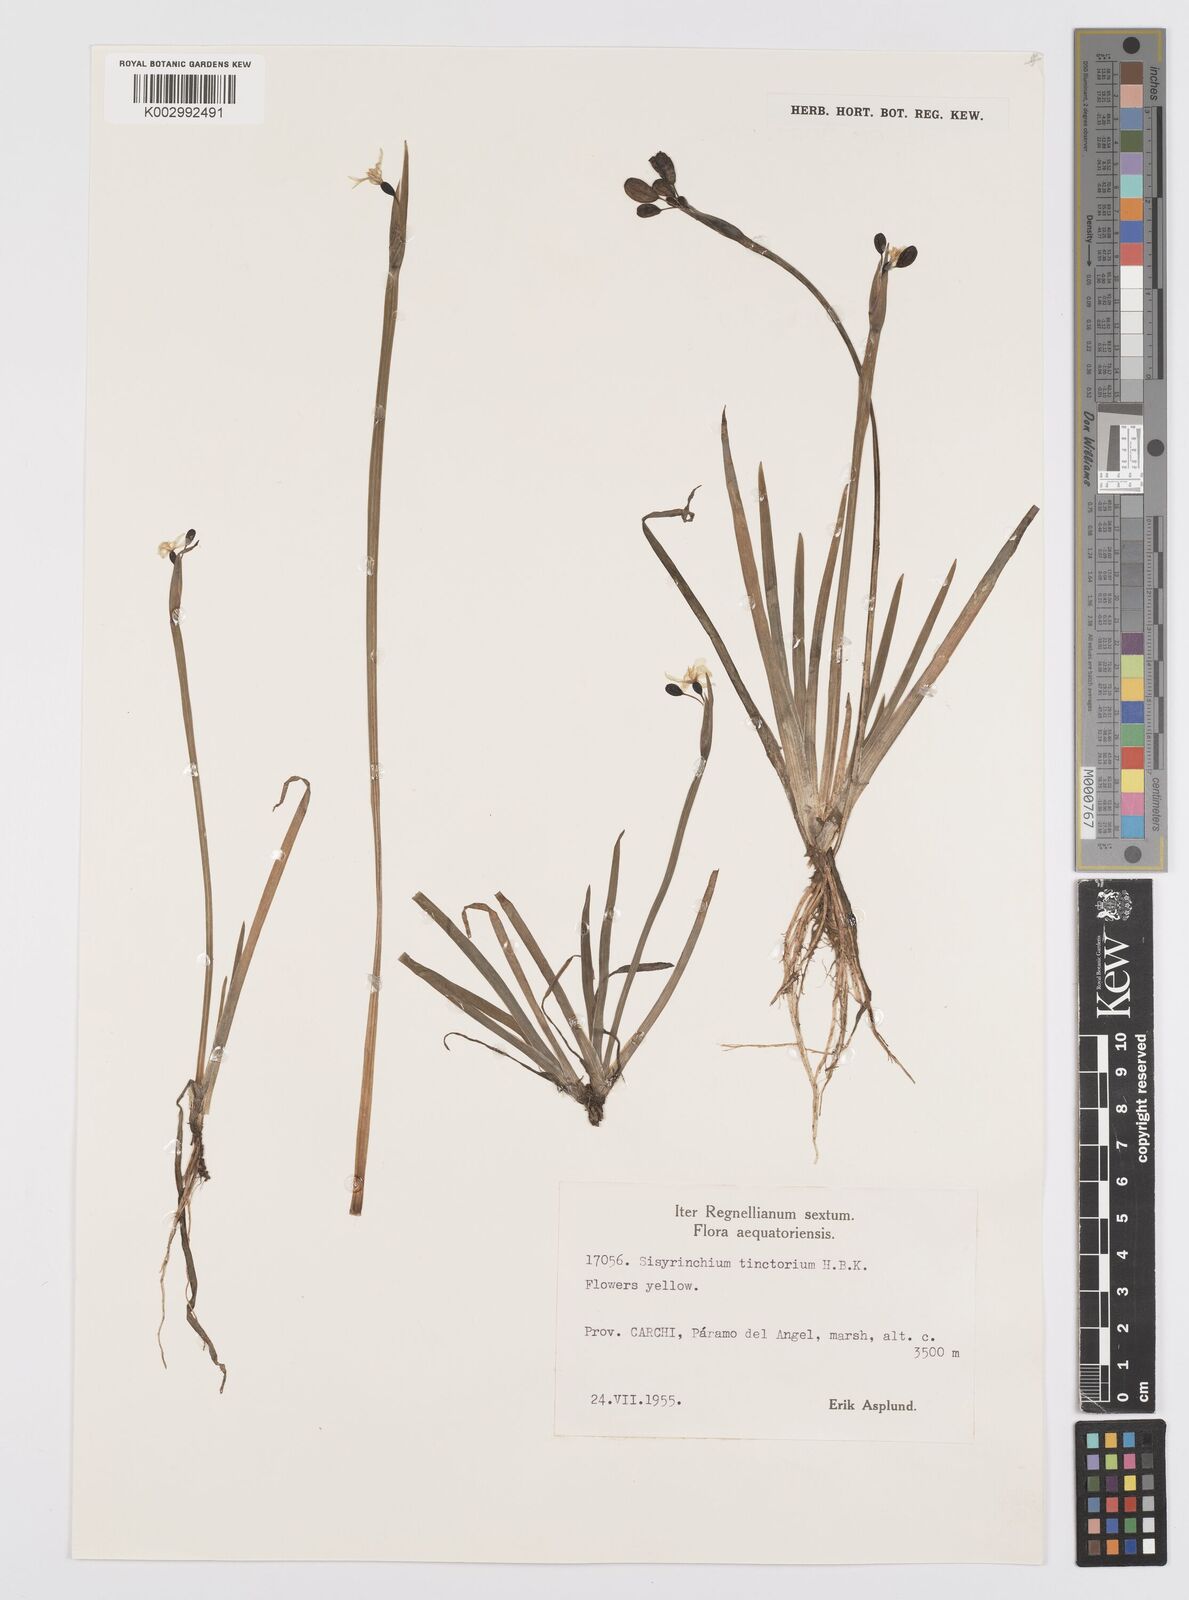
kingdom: Plantae
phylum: Tracheophyta
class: Liliopsida
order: Asparagales
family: Iridaceae
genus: Sisyrinchium
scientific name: Sisyrinchium tinctorium
